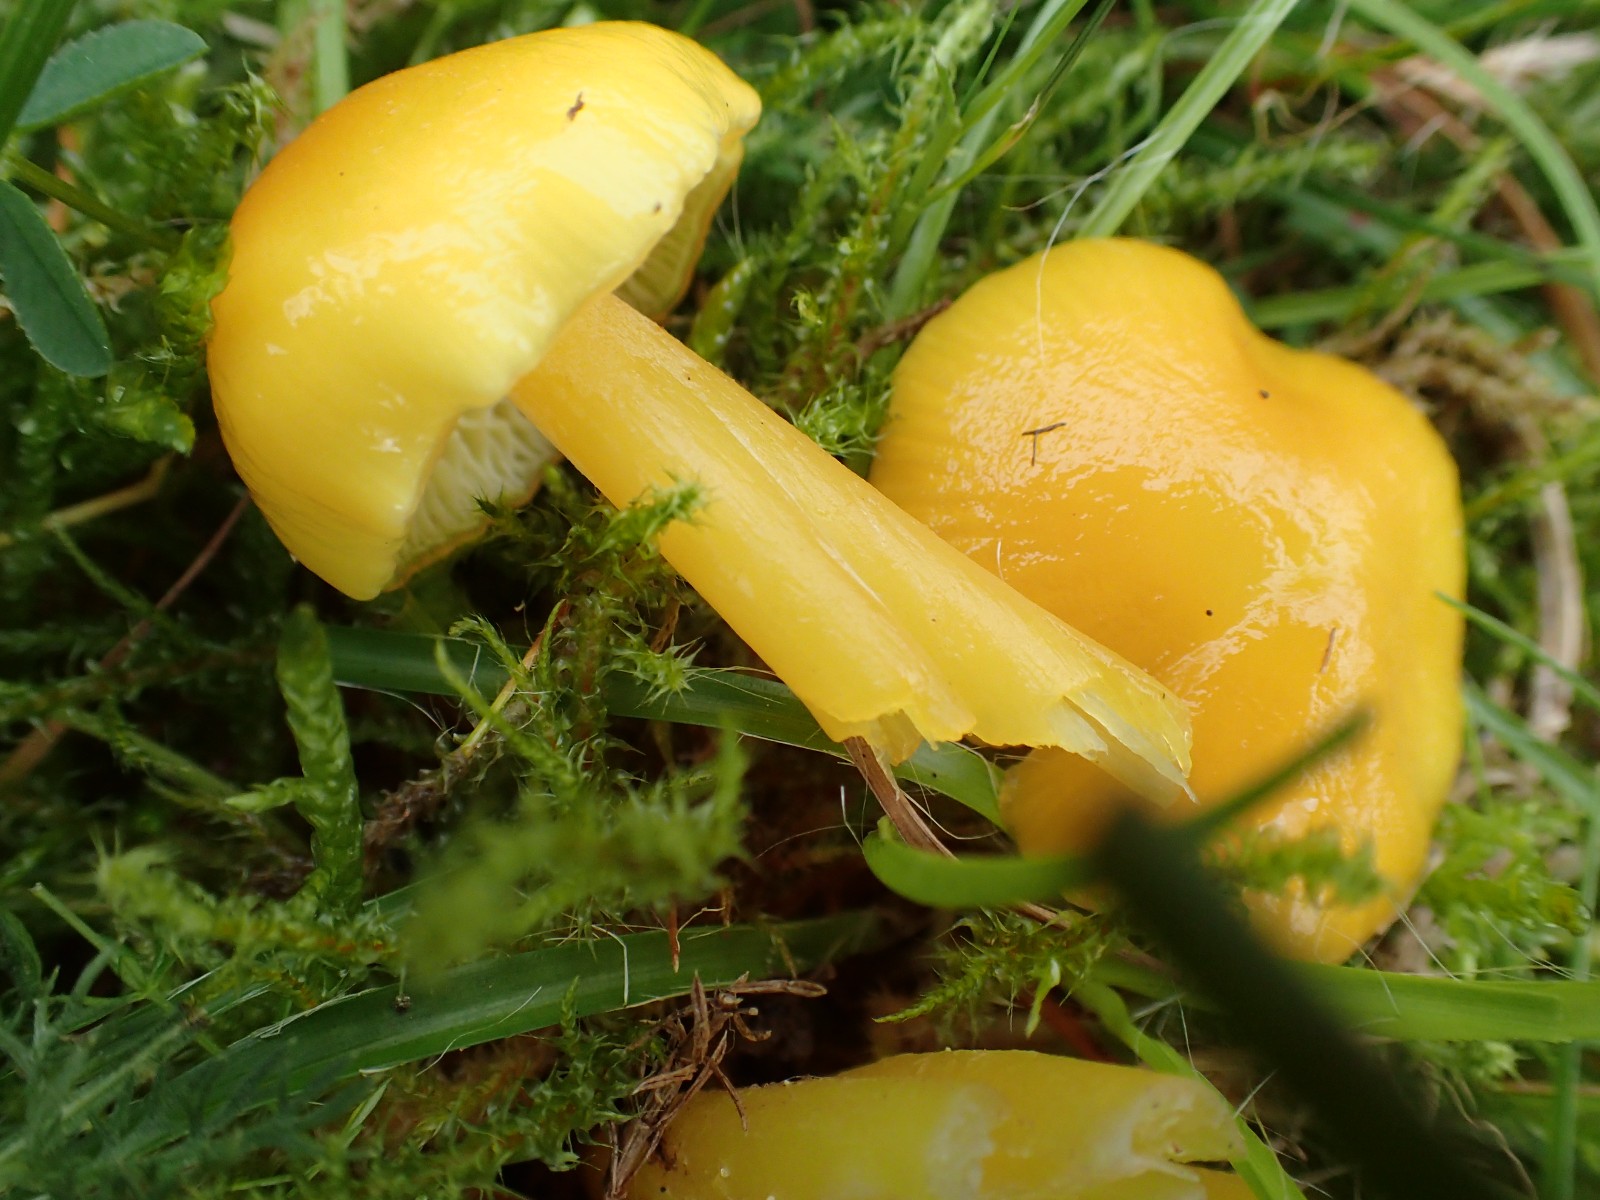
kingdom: Fungi
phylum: Basidiomycota
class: Agaricomycetes
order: Agaricales
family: Hygrophoraceae
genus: Hygrocybe
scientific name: Hygrocybe chlorophana
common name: gul vokshat
